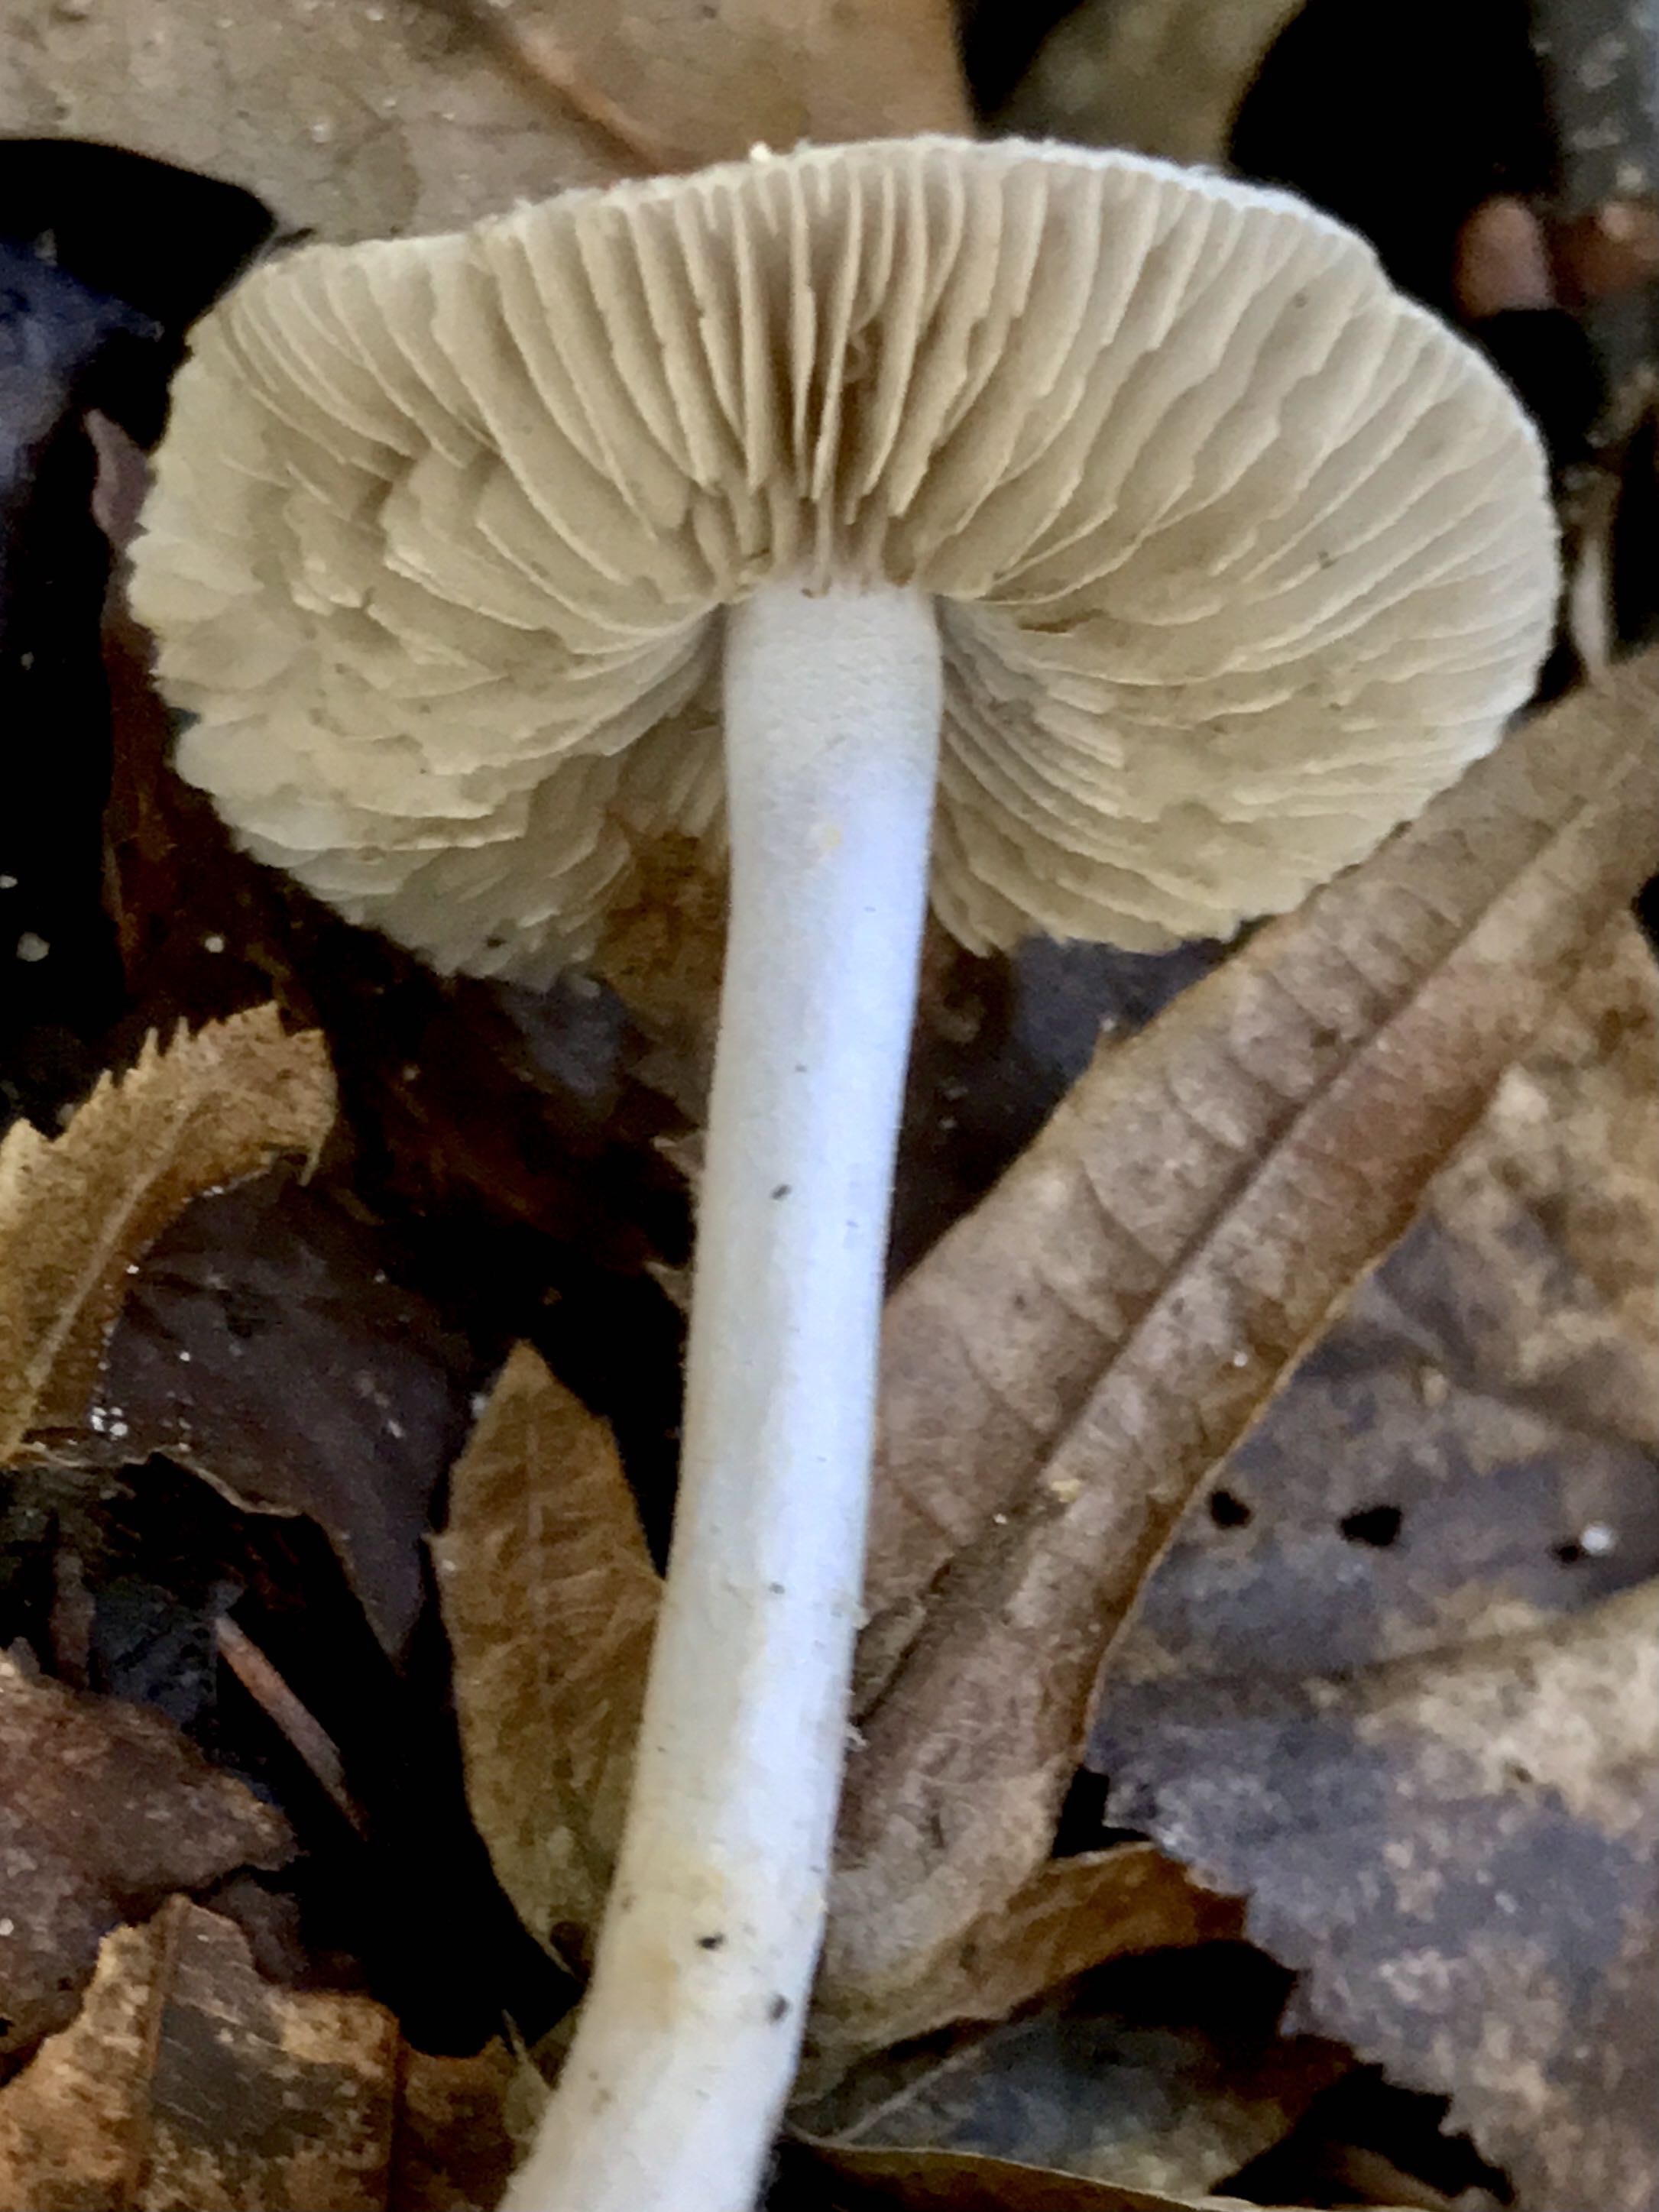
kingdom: Fungi
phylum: Basidiomycota
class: Agaricomycetes
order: Agaricales
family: Inocybaceae
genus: Inocybe
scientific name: Inocybe geophylla
